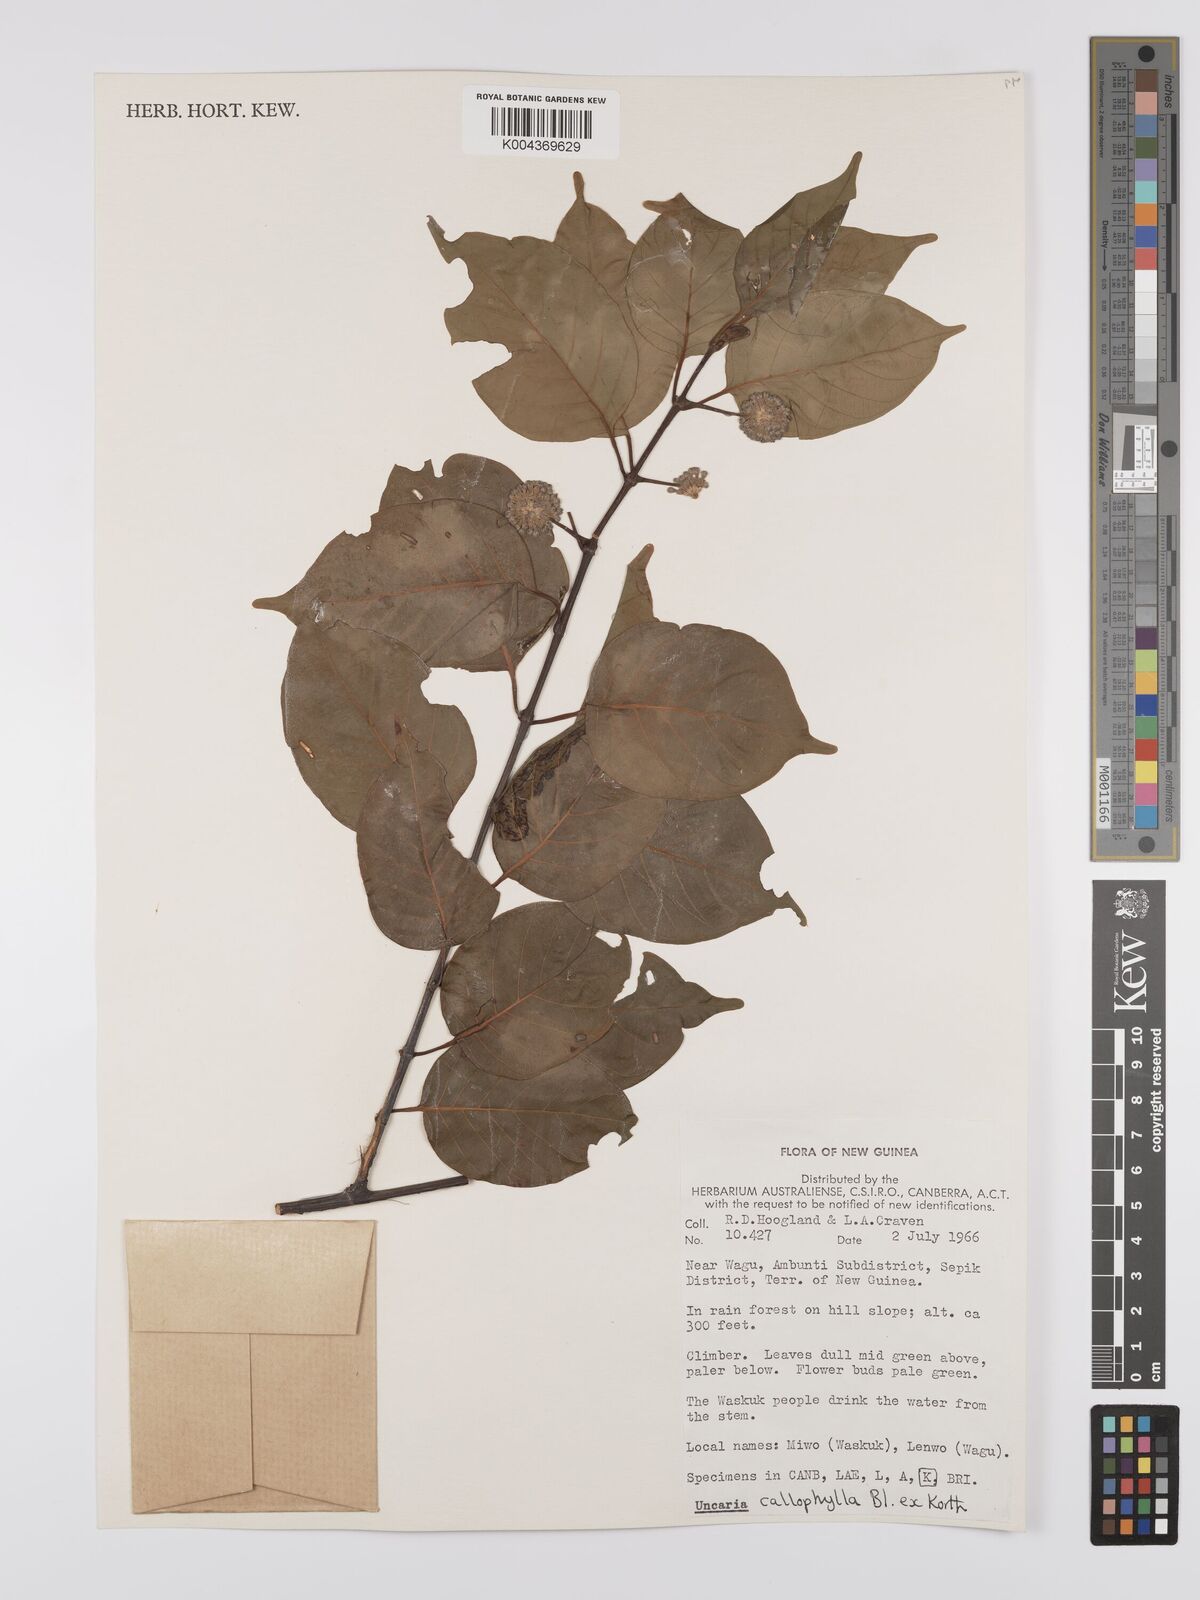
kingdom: Plantae
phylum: Tracheophyta
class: Magnoliopsida
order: Gentianales
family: Rubiaceae
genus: Uncaria
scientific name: Uncaria callophylla
